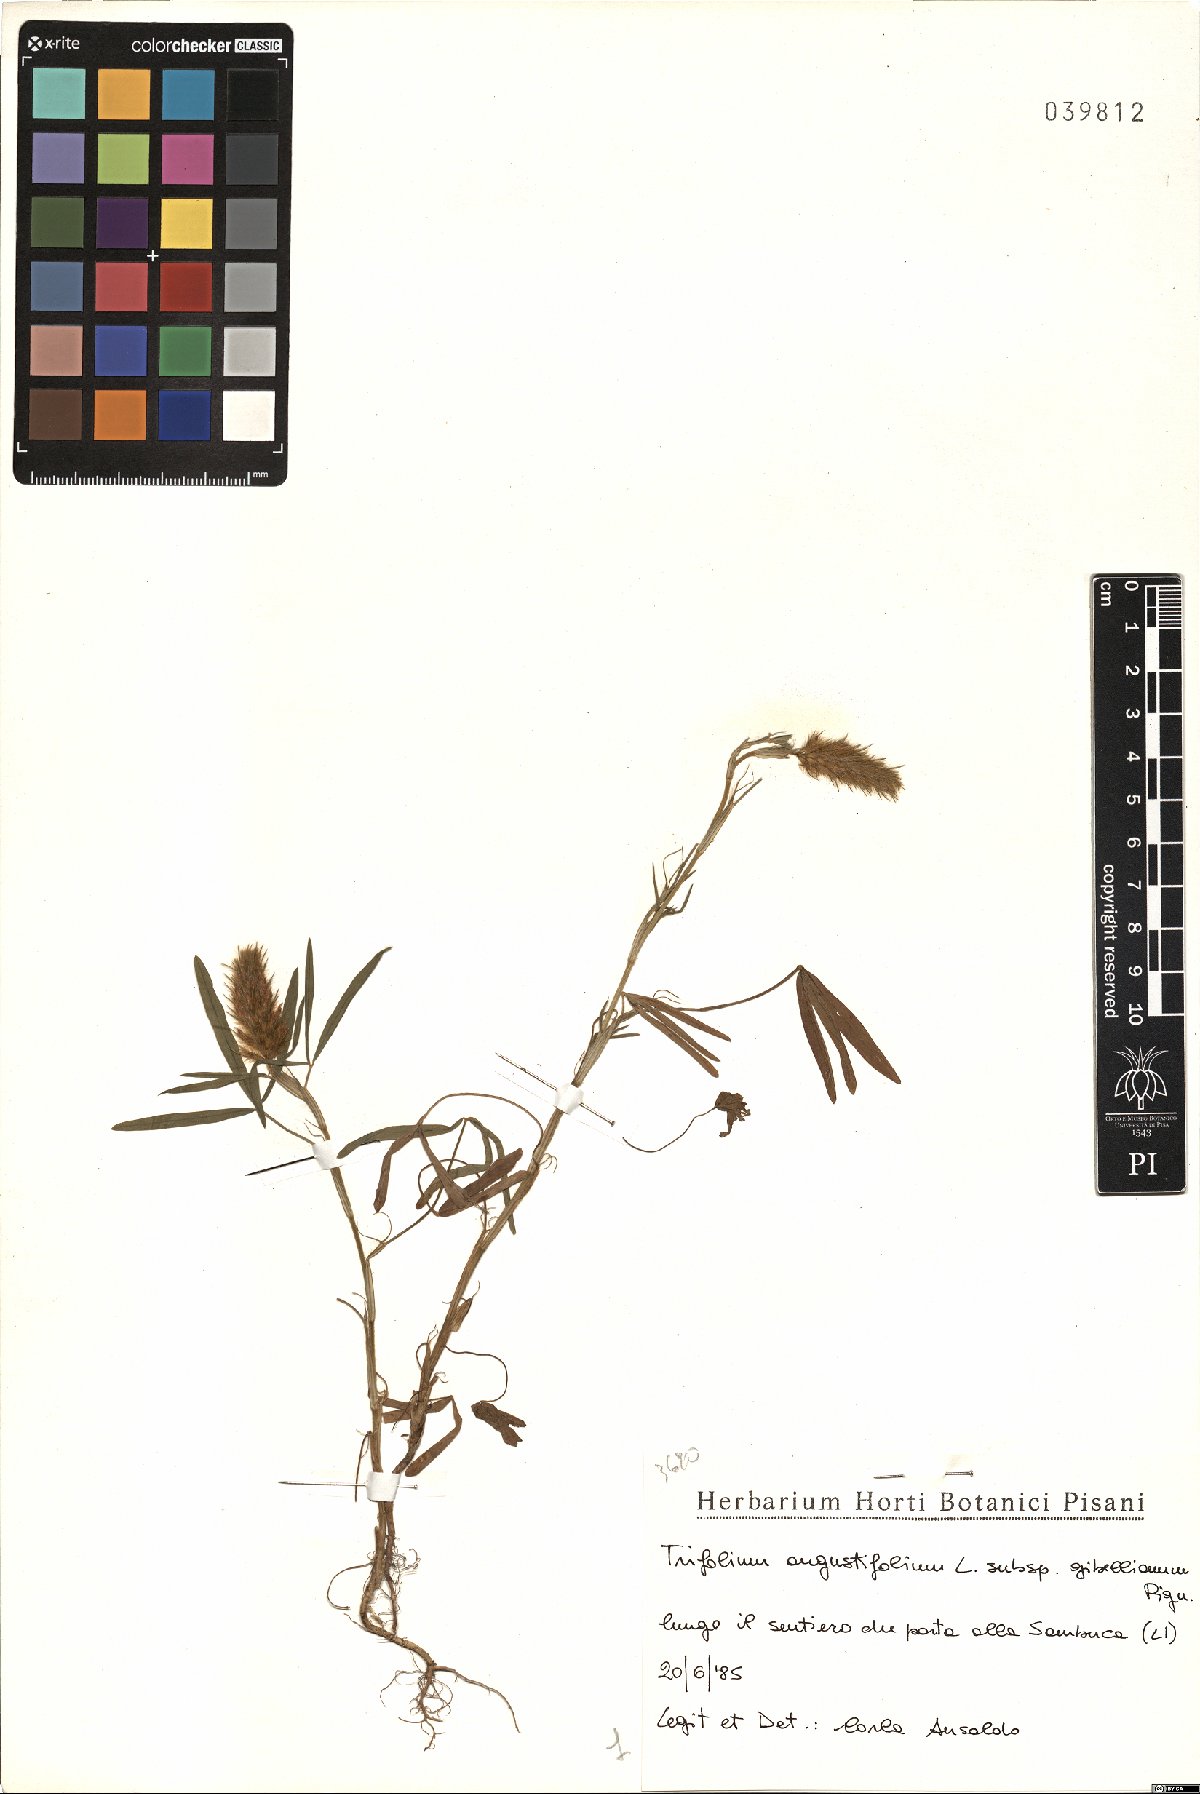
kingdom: Plantae
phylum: Tracheophyta
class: Magnoliopsida
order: Fabales
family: Fabaceae
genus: Trifolium
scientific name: Trifolium infamia-ponertii
